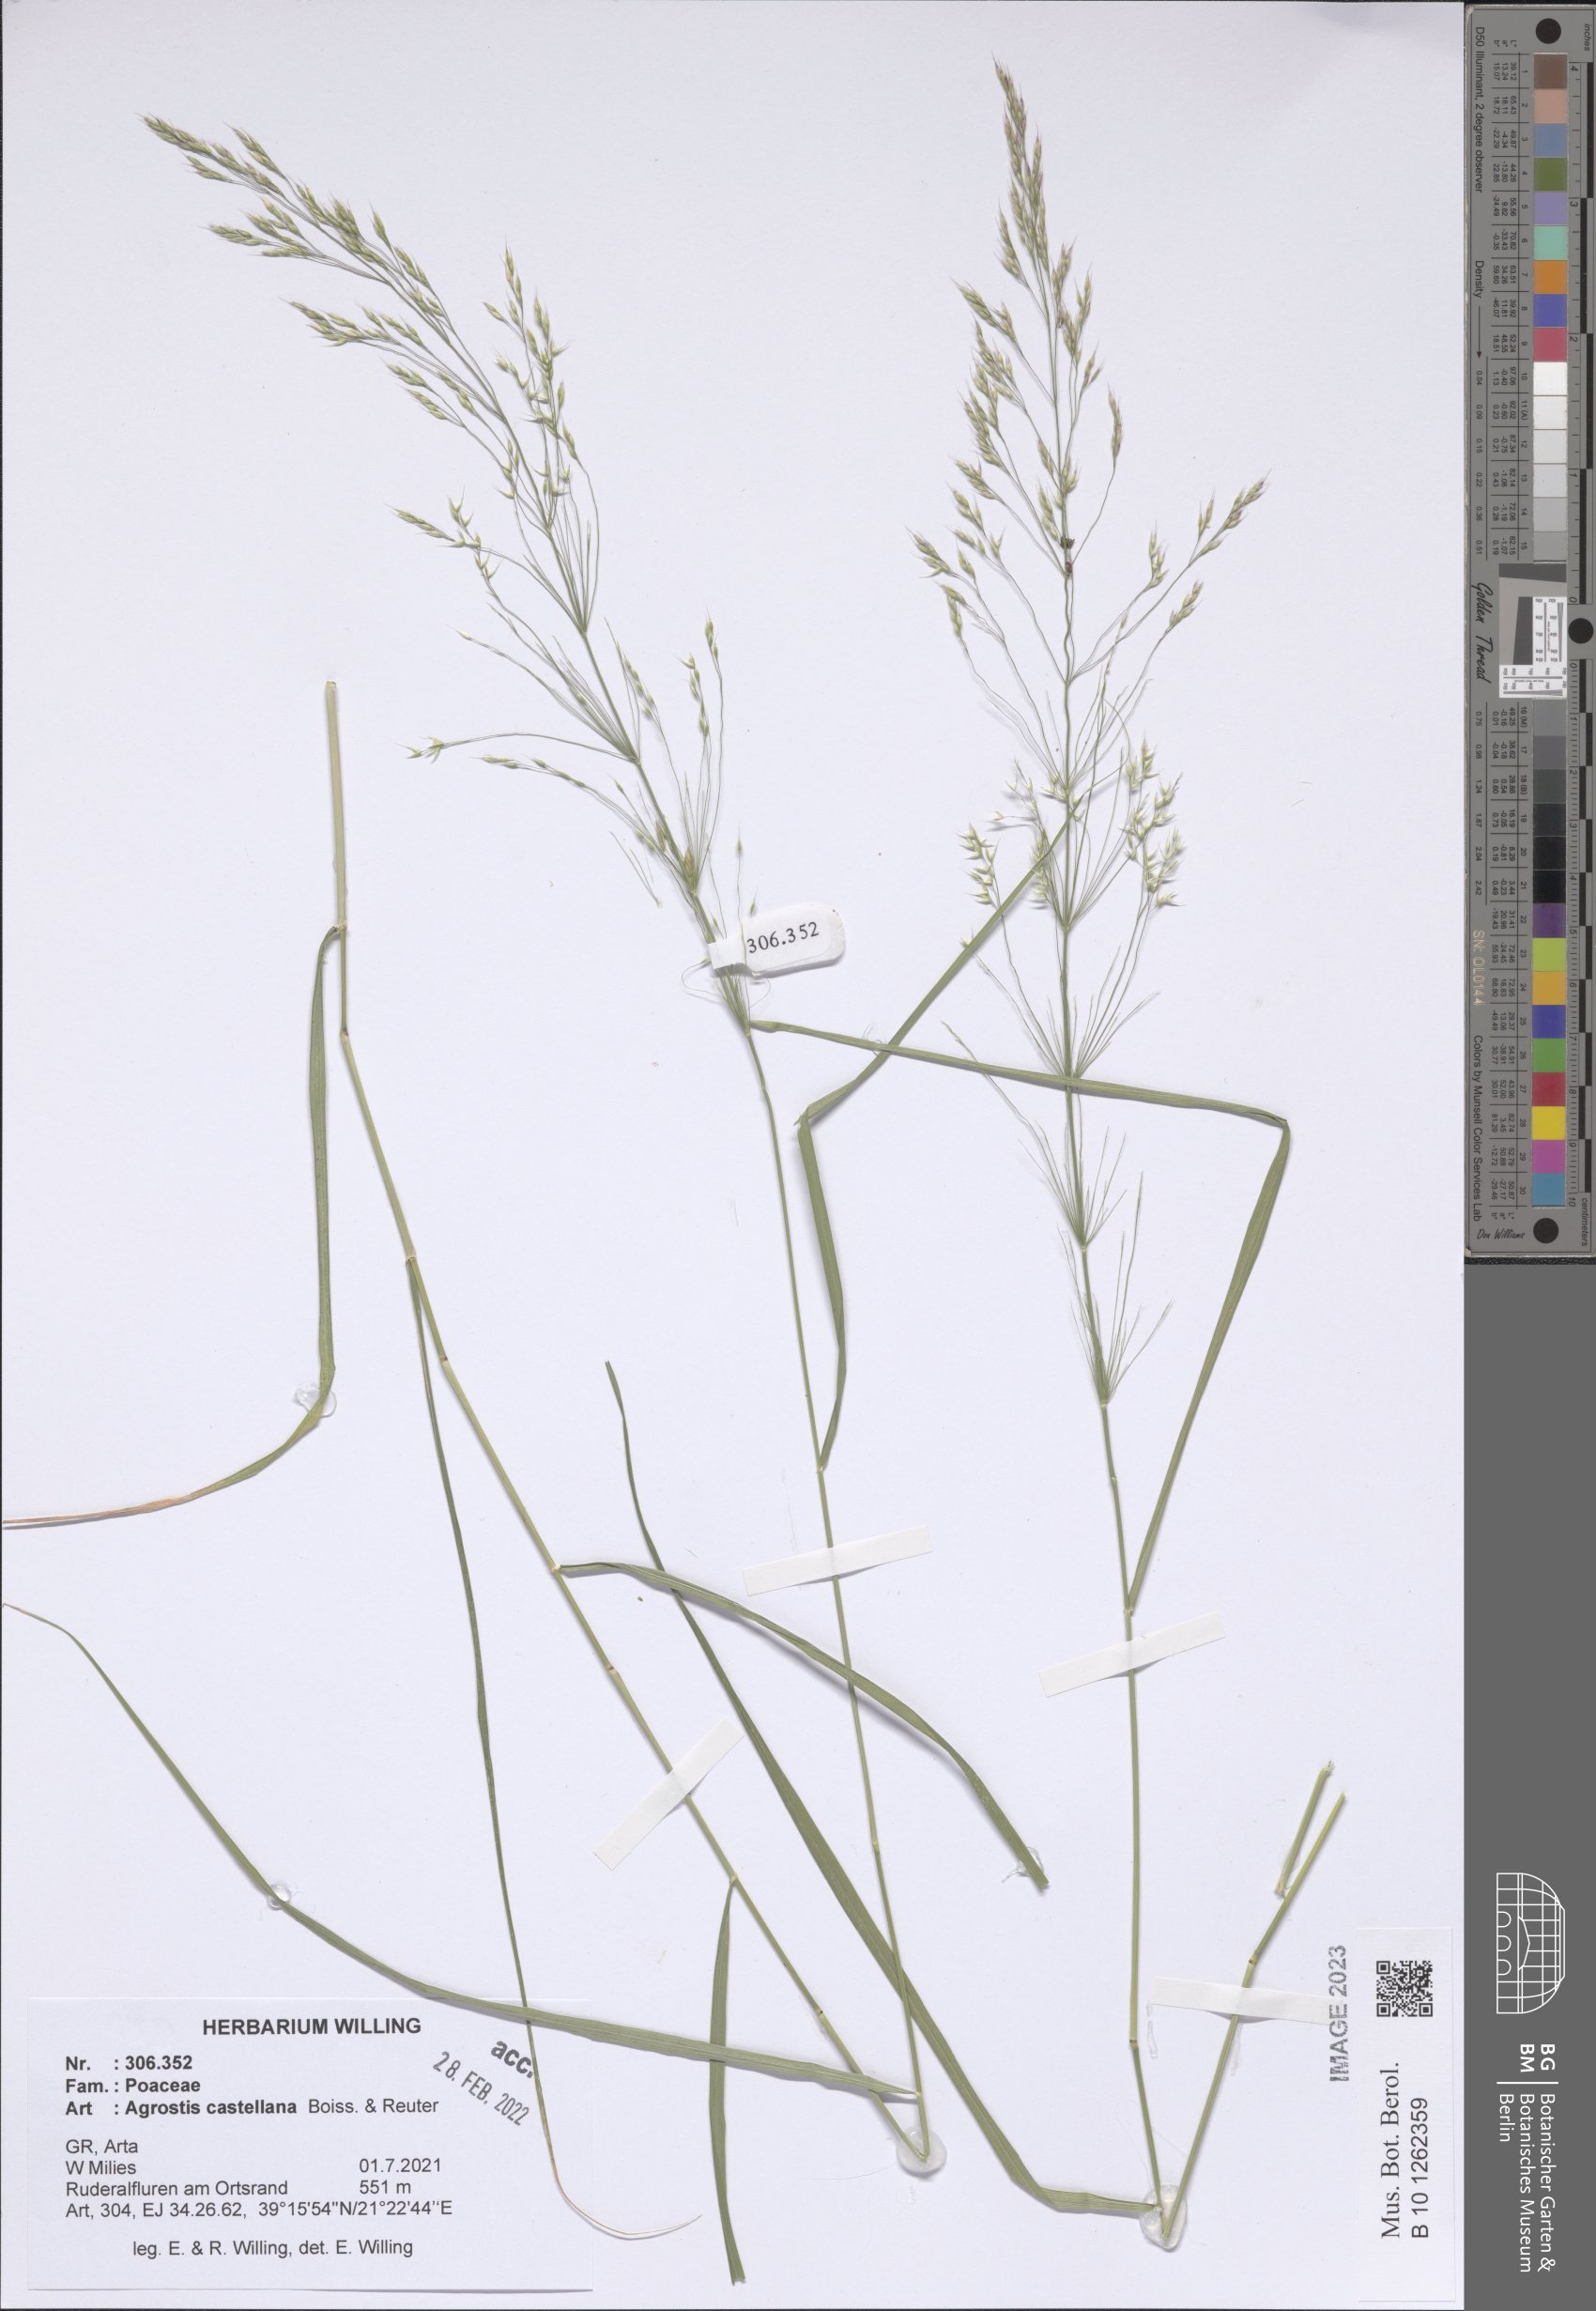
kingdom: Plantae
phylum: Tracheophyta
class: Liliopsida
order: Poales
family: Poaceae
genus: Agrostis
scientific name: Agrostis castellana
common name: Highland bent
